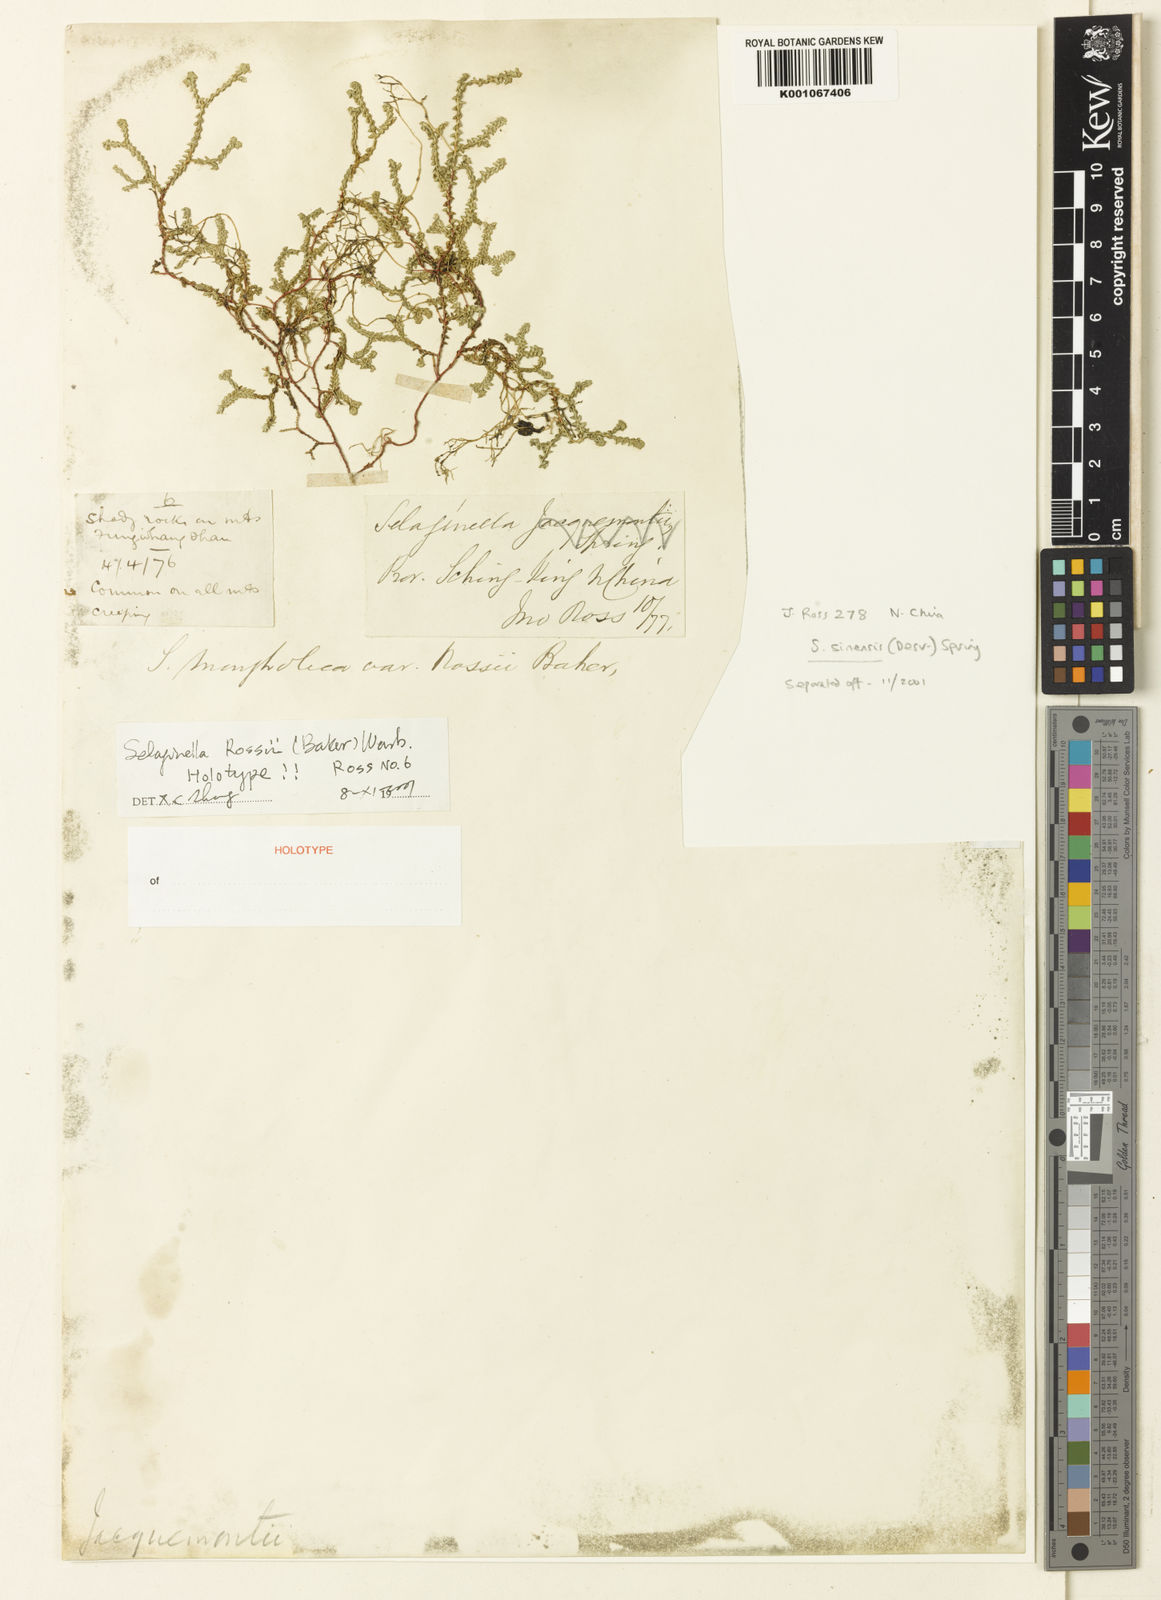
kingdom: Plantae
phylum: Tracheophyta
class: Lycopodiopsida
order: Selaginellales
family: Selaginellaceae
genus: Selaginella
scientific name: Selaginella rossii
